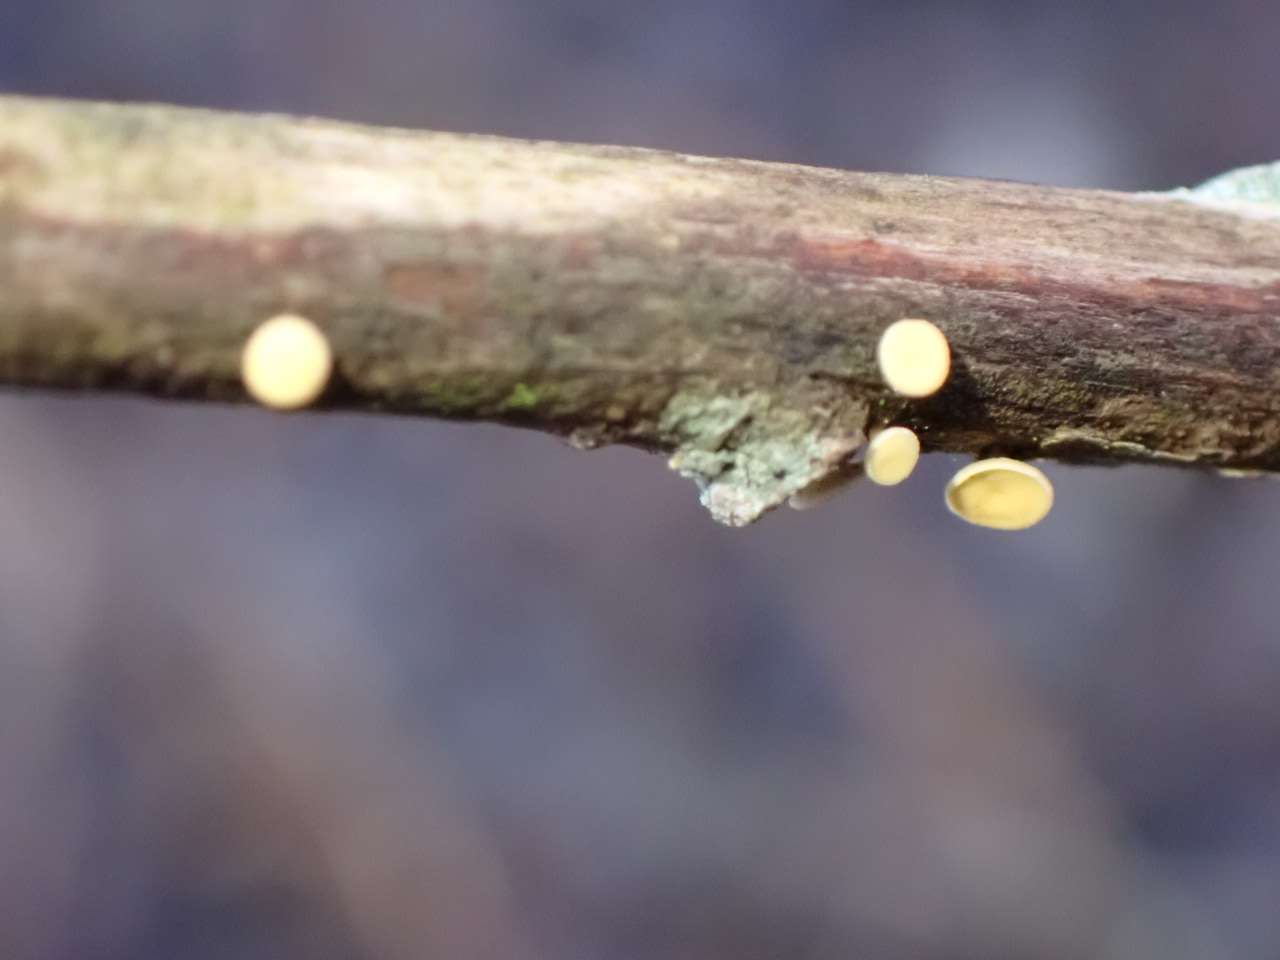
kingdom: Fungi
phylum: Ascomycota
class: Leotiomycetes
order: Helotiales
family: Helotiaceae
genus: Hymenoscyphus
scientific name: Hymenoscyphus
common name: stilkskive
